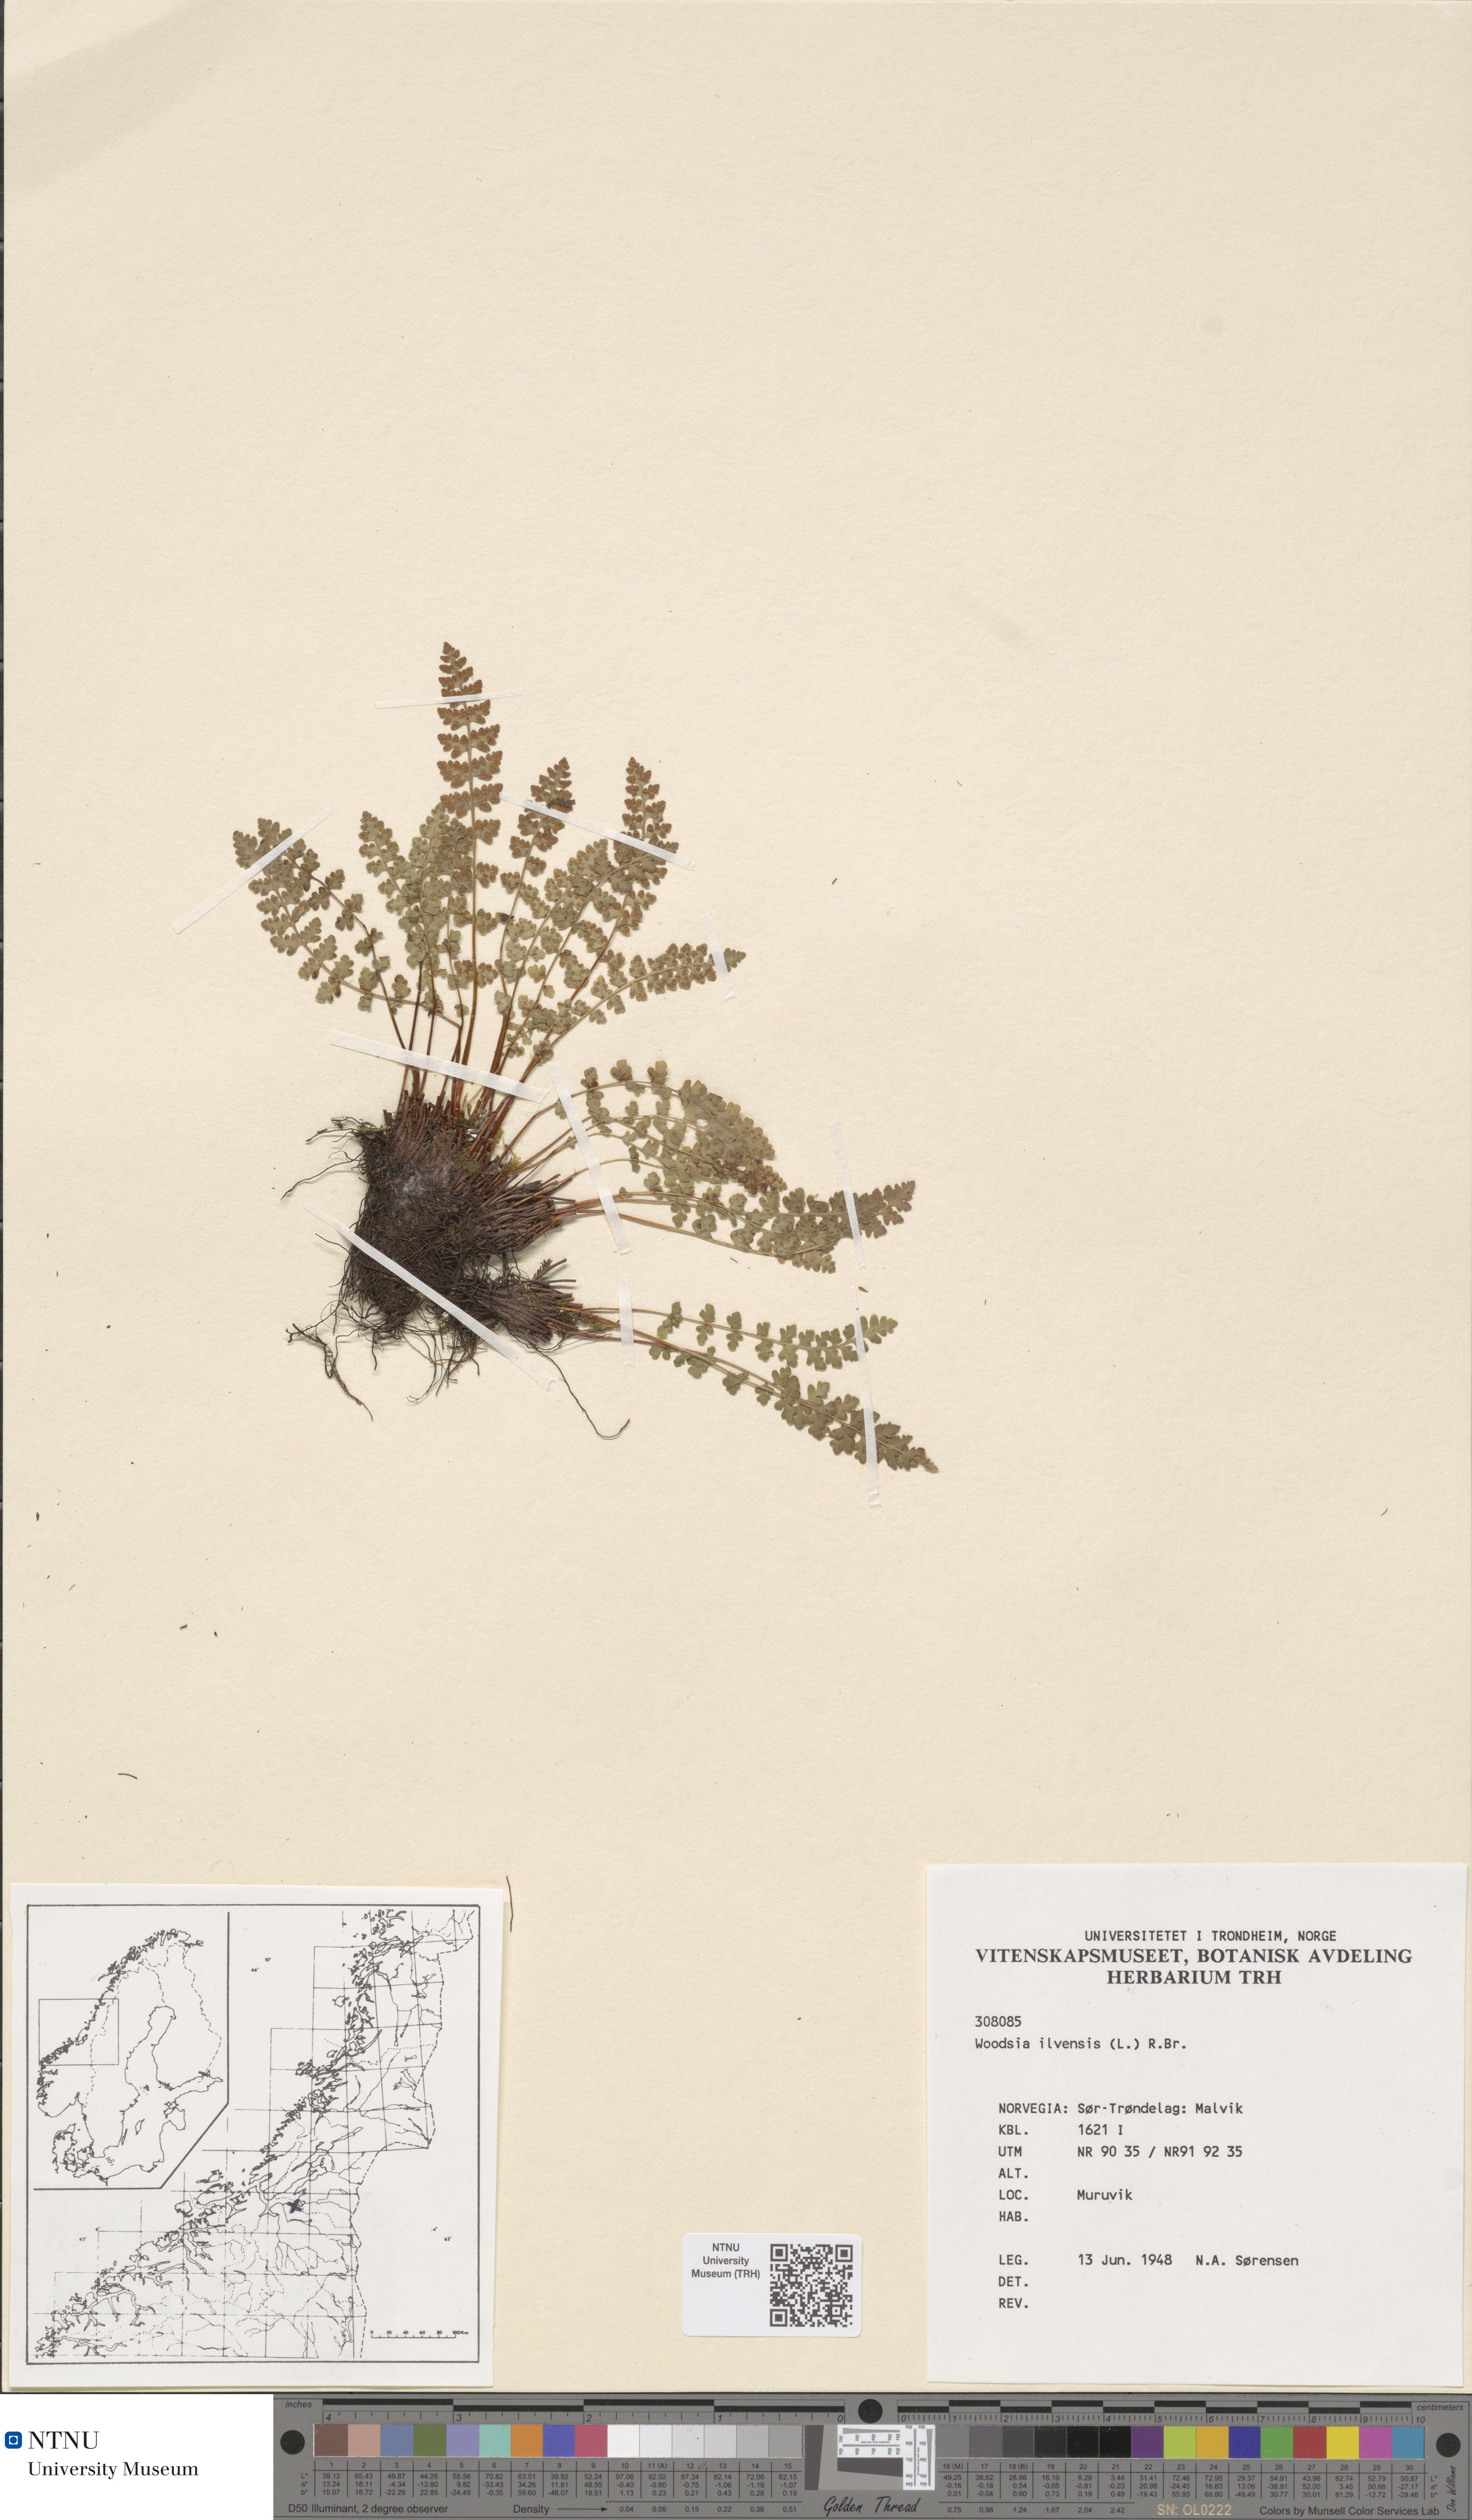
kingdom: Plantae
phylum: Tracheophyta
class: Polypodiopsida
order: Polypodiales
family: Woodsiaceae
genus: Woodsia
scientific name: Woodsia ilvensis
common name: Fragrant woodsia
